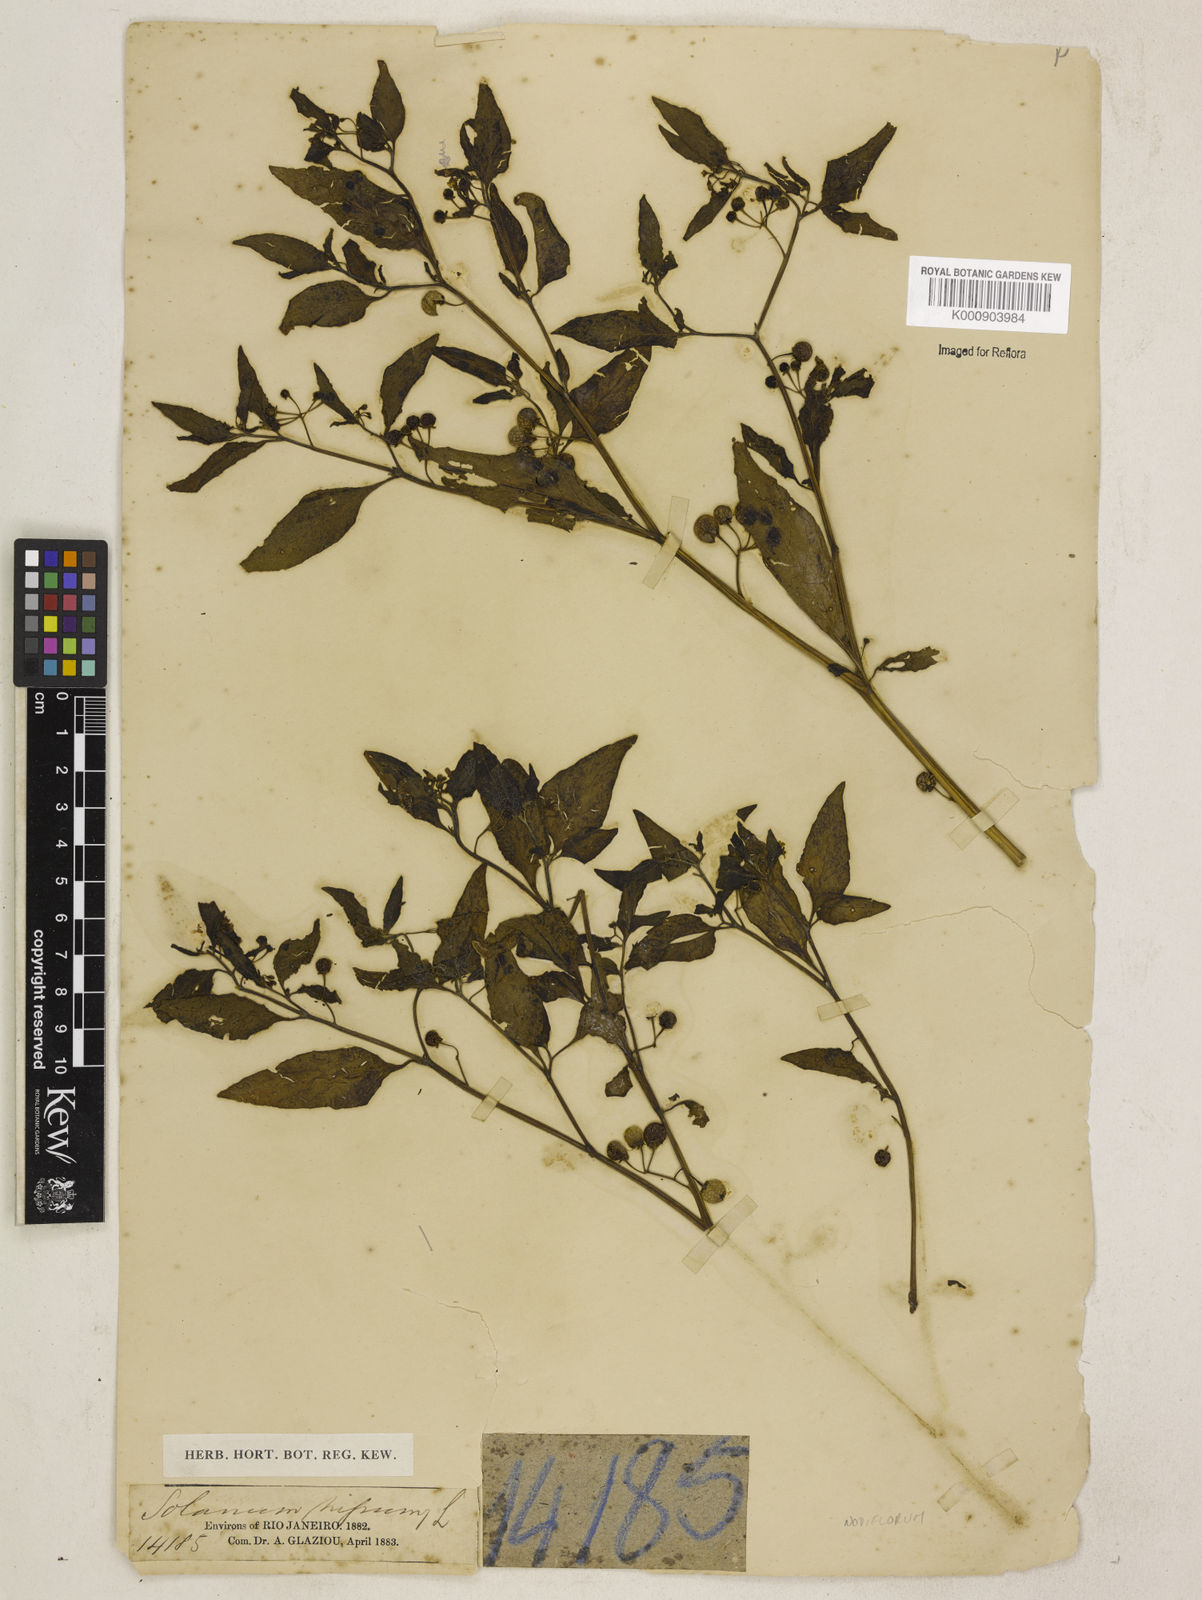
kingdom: Plantae
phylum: Tracheophyta
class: Magnoliopsida
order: Solanales
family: Solanaceae
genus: Solanum
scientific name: Solanum americanum
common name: American black nightshade
